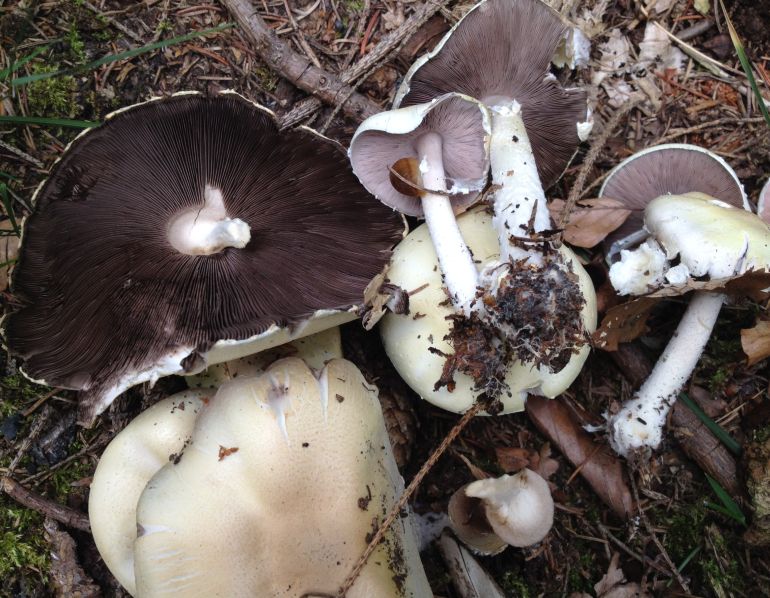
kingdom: Fungi
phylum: Basidiomycota
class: Agaricomycetes
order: Agaricales
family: Agaricaceae
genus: Agaricus
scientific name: Agaricus sylvicola
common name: gulhvid champignon
